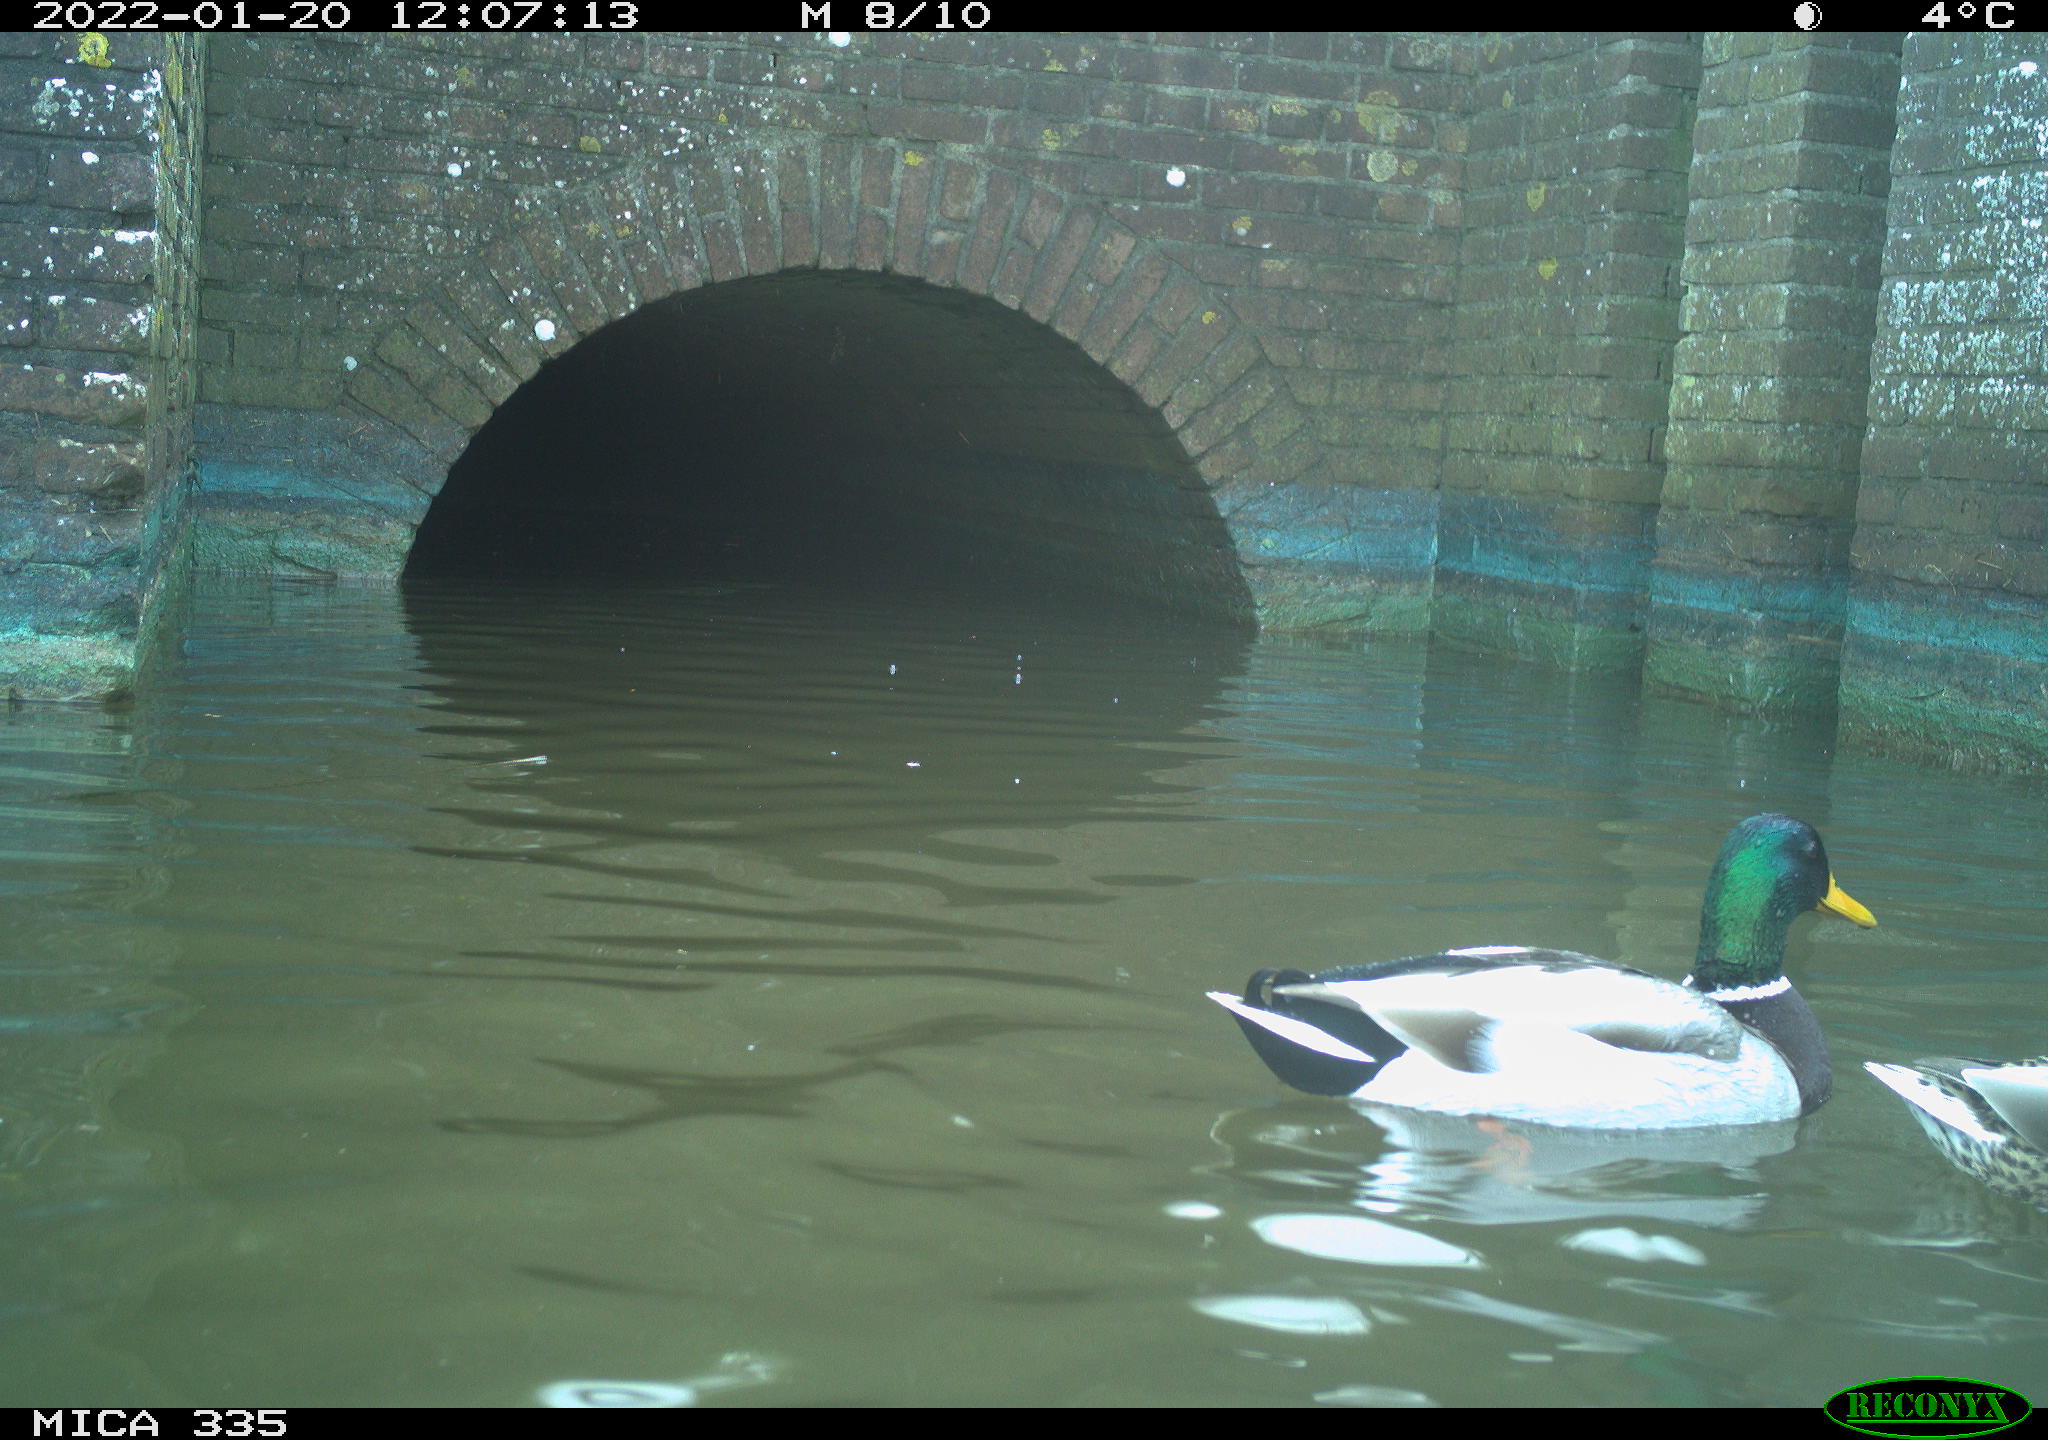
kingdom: Animalia
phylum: Chordata
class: Aves
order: Anseriformes
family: Anatidae
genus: Anas
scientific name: Anas platyrhynchos
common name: Mallard
